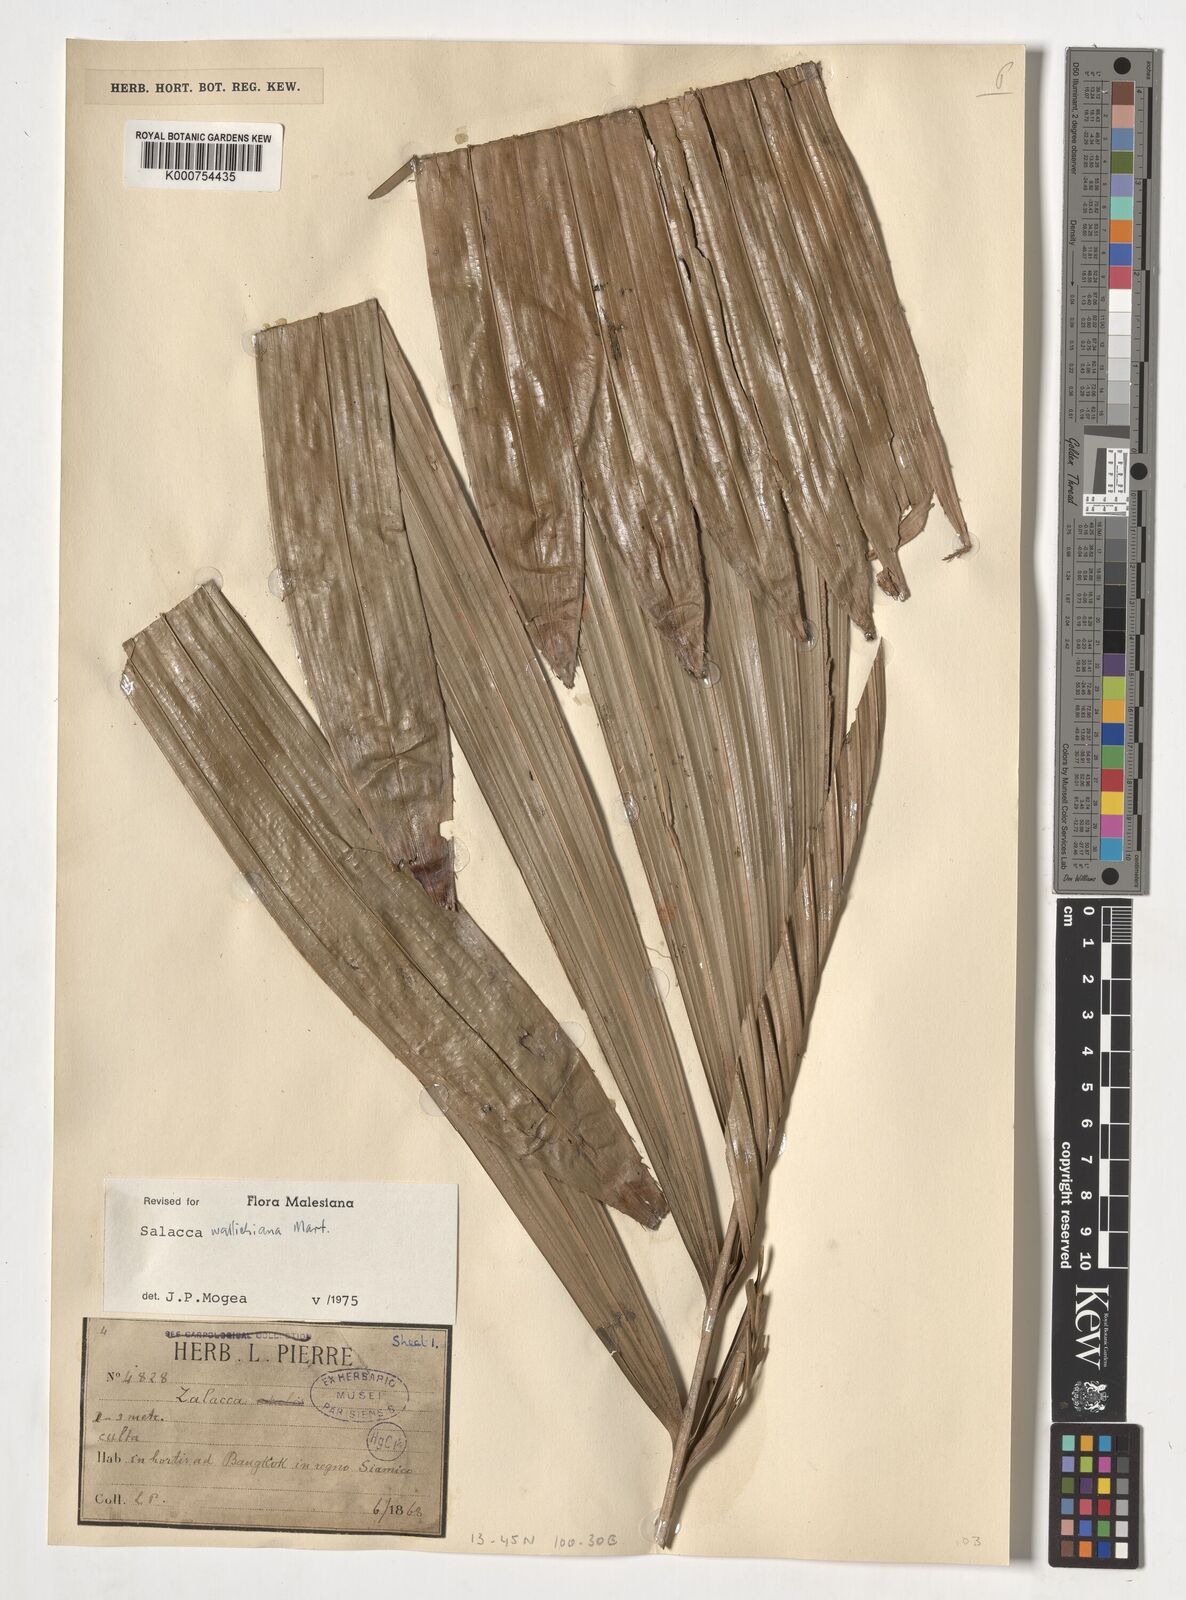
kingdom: Plantae
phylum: Tracheophyta
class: Liliopsida
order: Arecales
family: Arecaceae
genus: Salacca
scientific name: Salacca wallichiana
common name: Rakum palm
